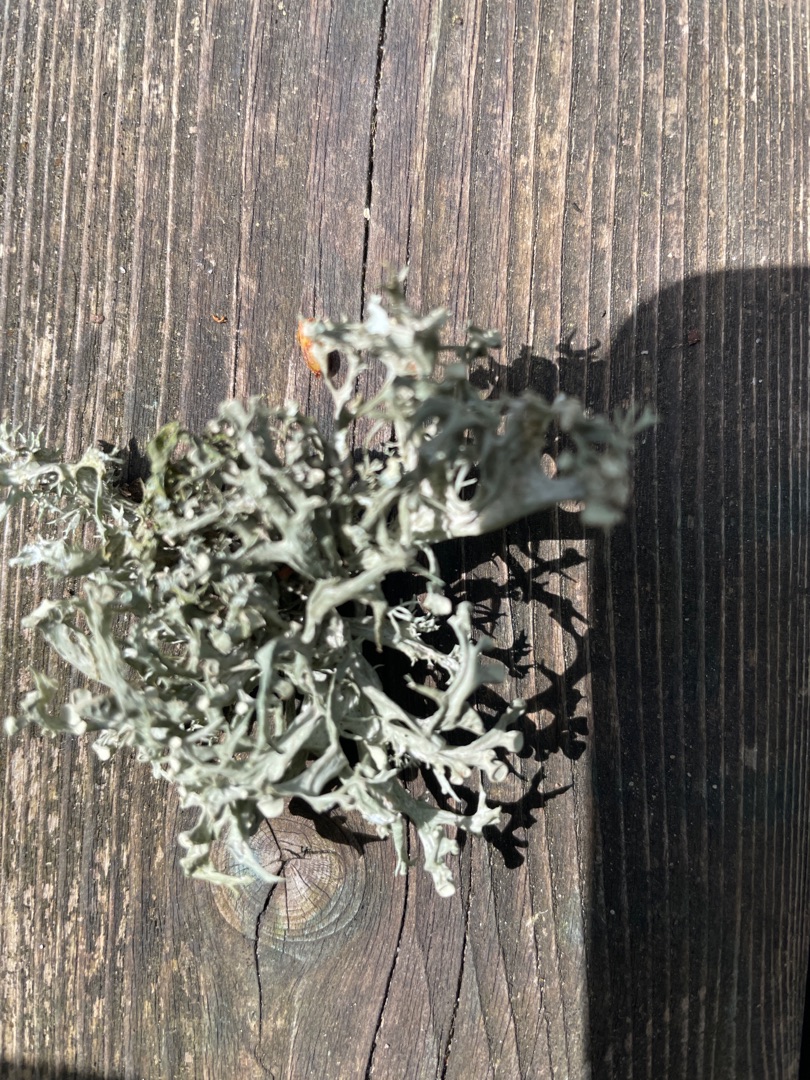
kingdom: Fungi
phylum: Ascomycota
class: Lecanoromycetes
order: Lecanorales
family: Ramalinaceae
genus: Ramalina
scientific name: Ramalina fastigiata
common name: Tue-grenlav
